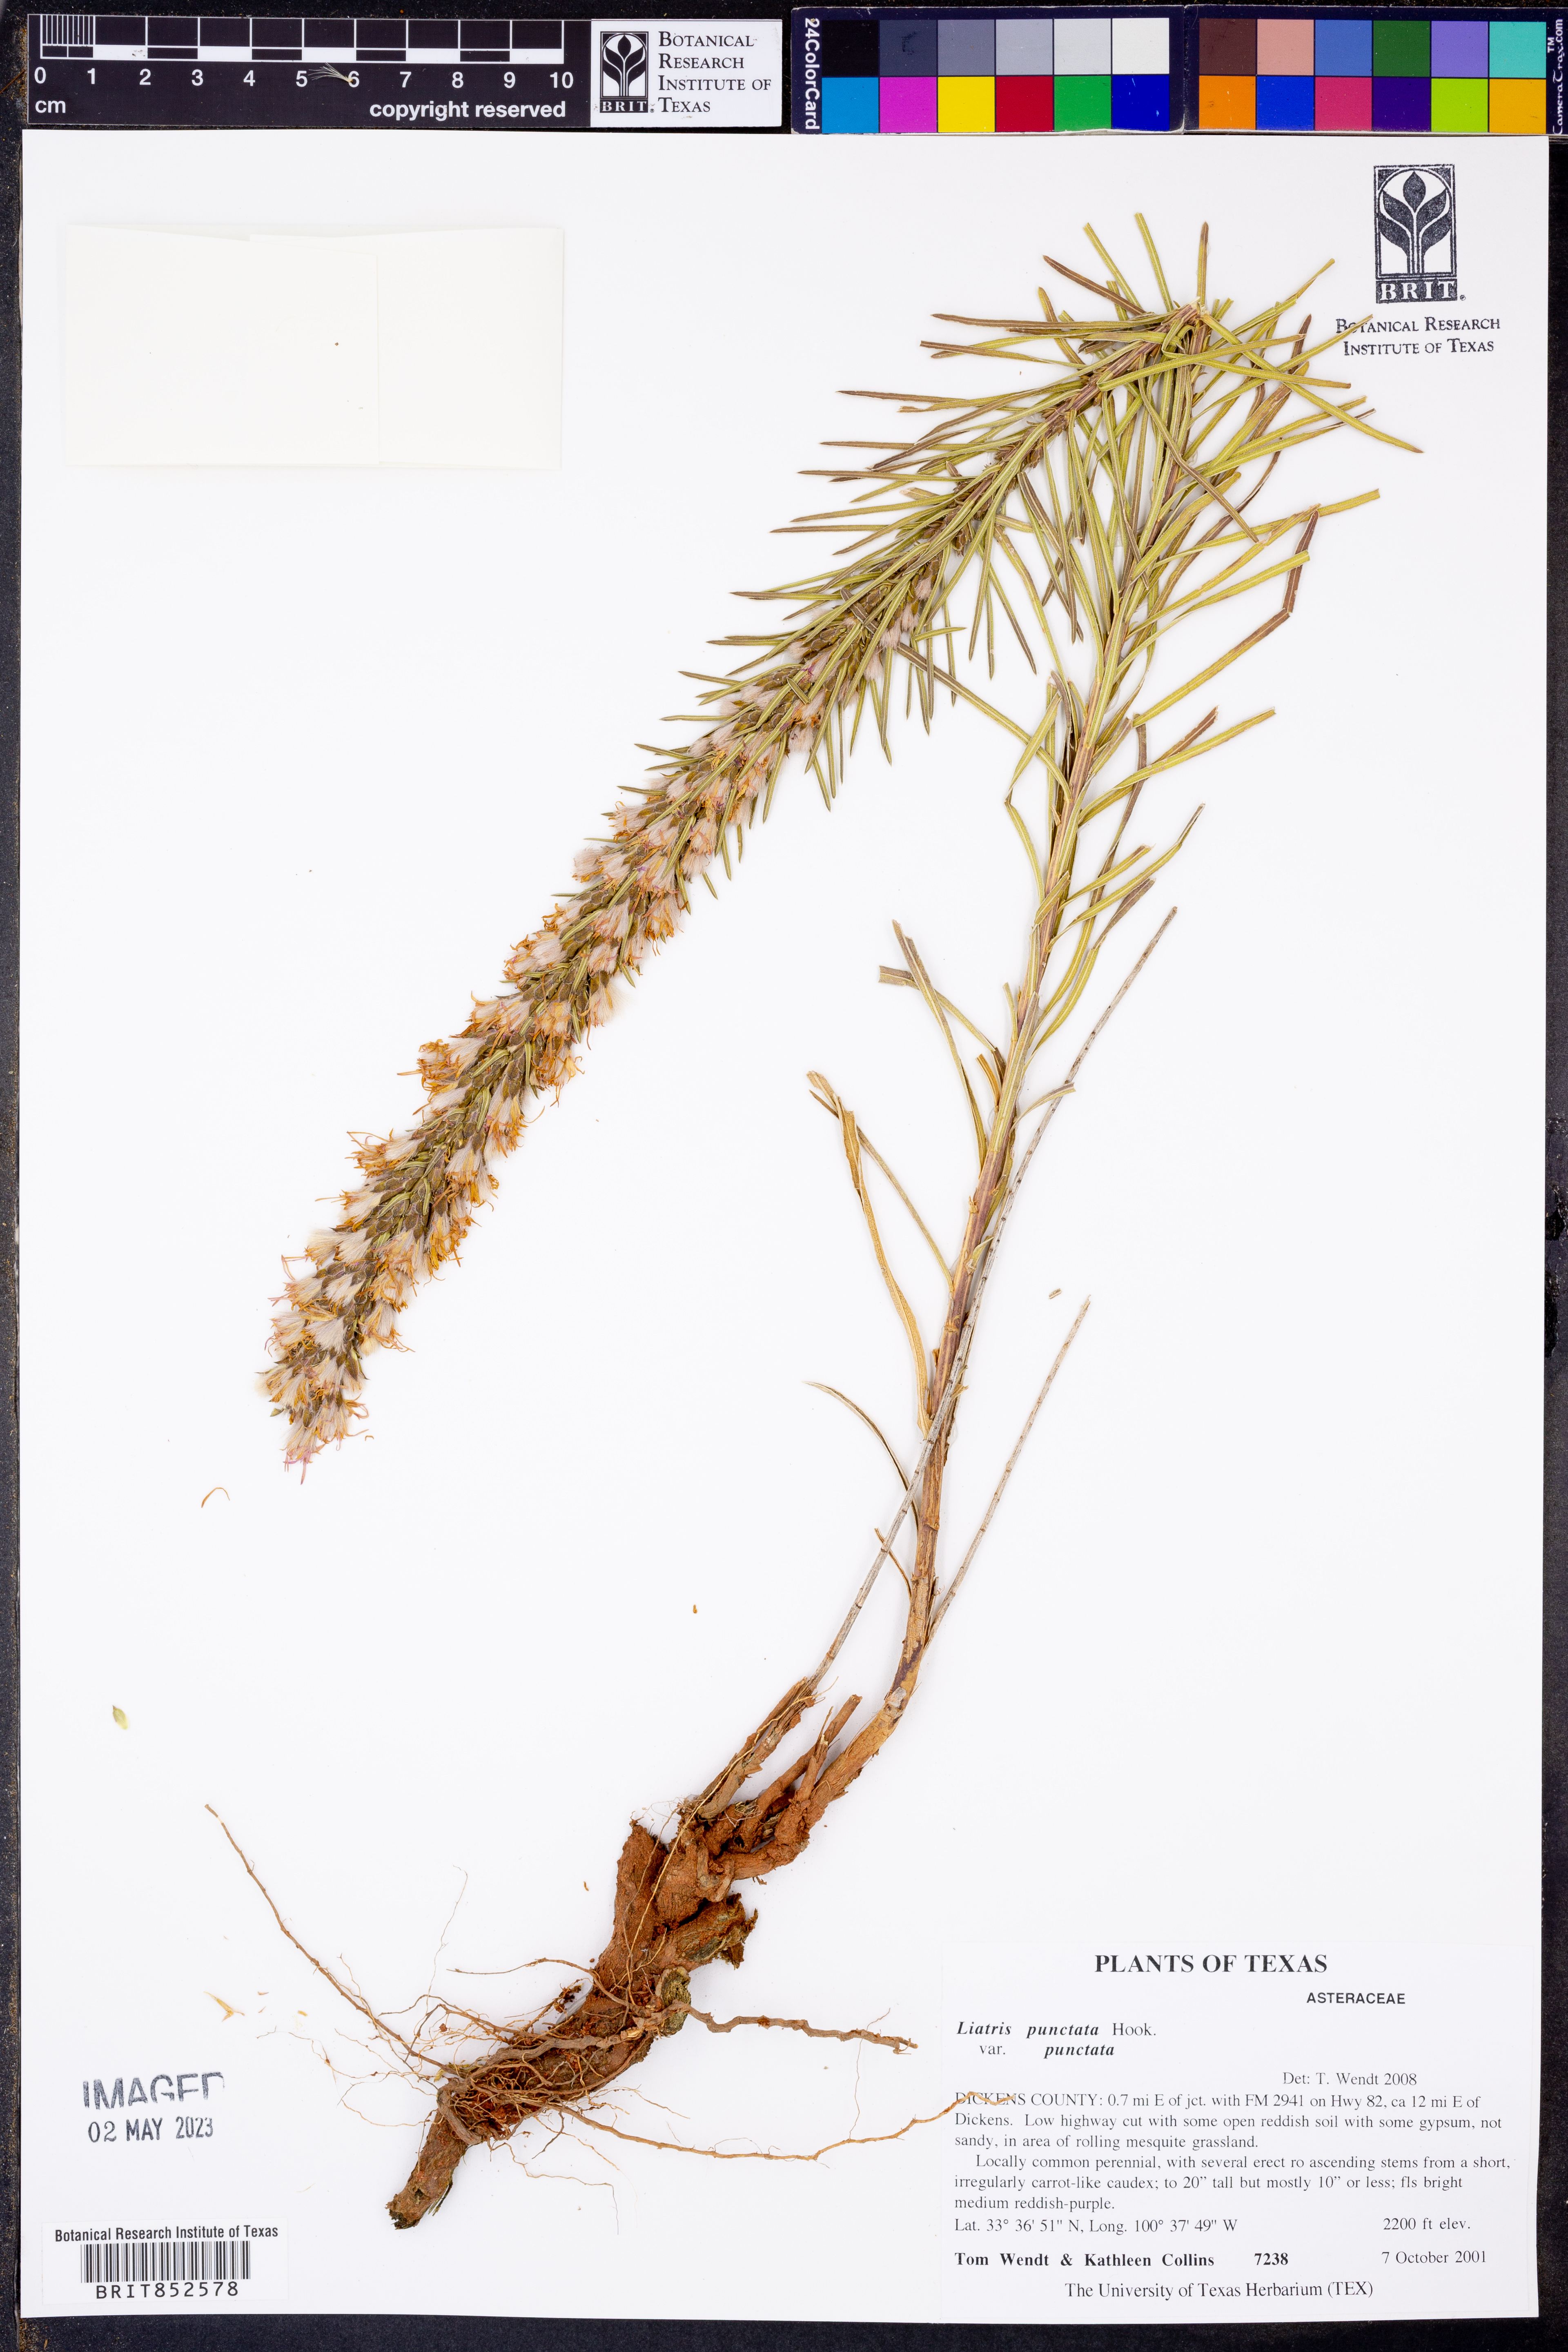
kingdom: Plantae
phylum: Tracheophyta
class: Magnoliopsida
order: Asterales
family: Asteraceae
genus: Liatris
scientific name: Liatris punctata
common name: Dotted gayfeather
